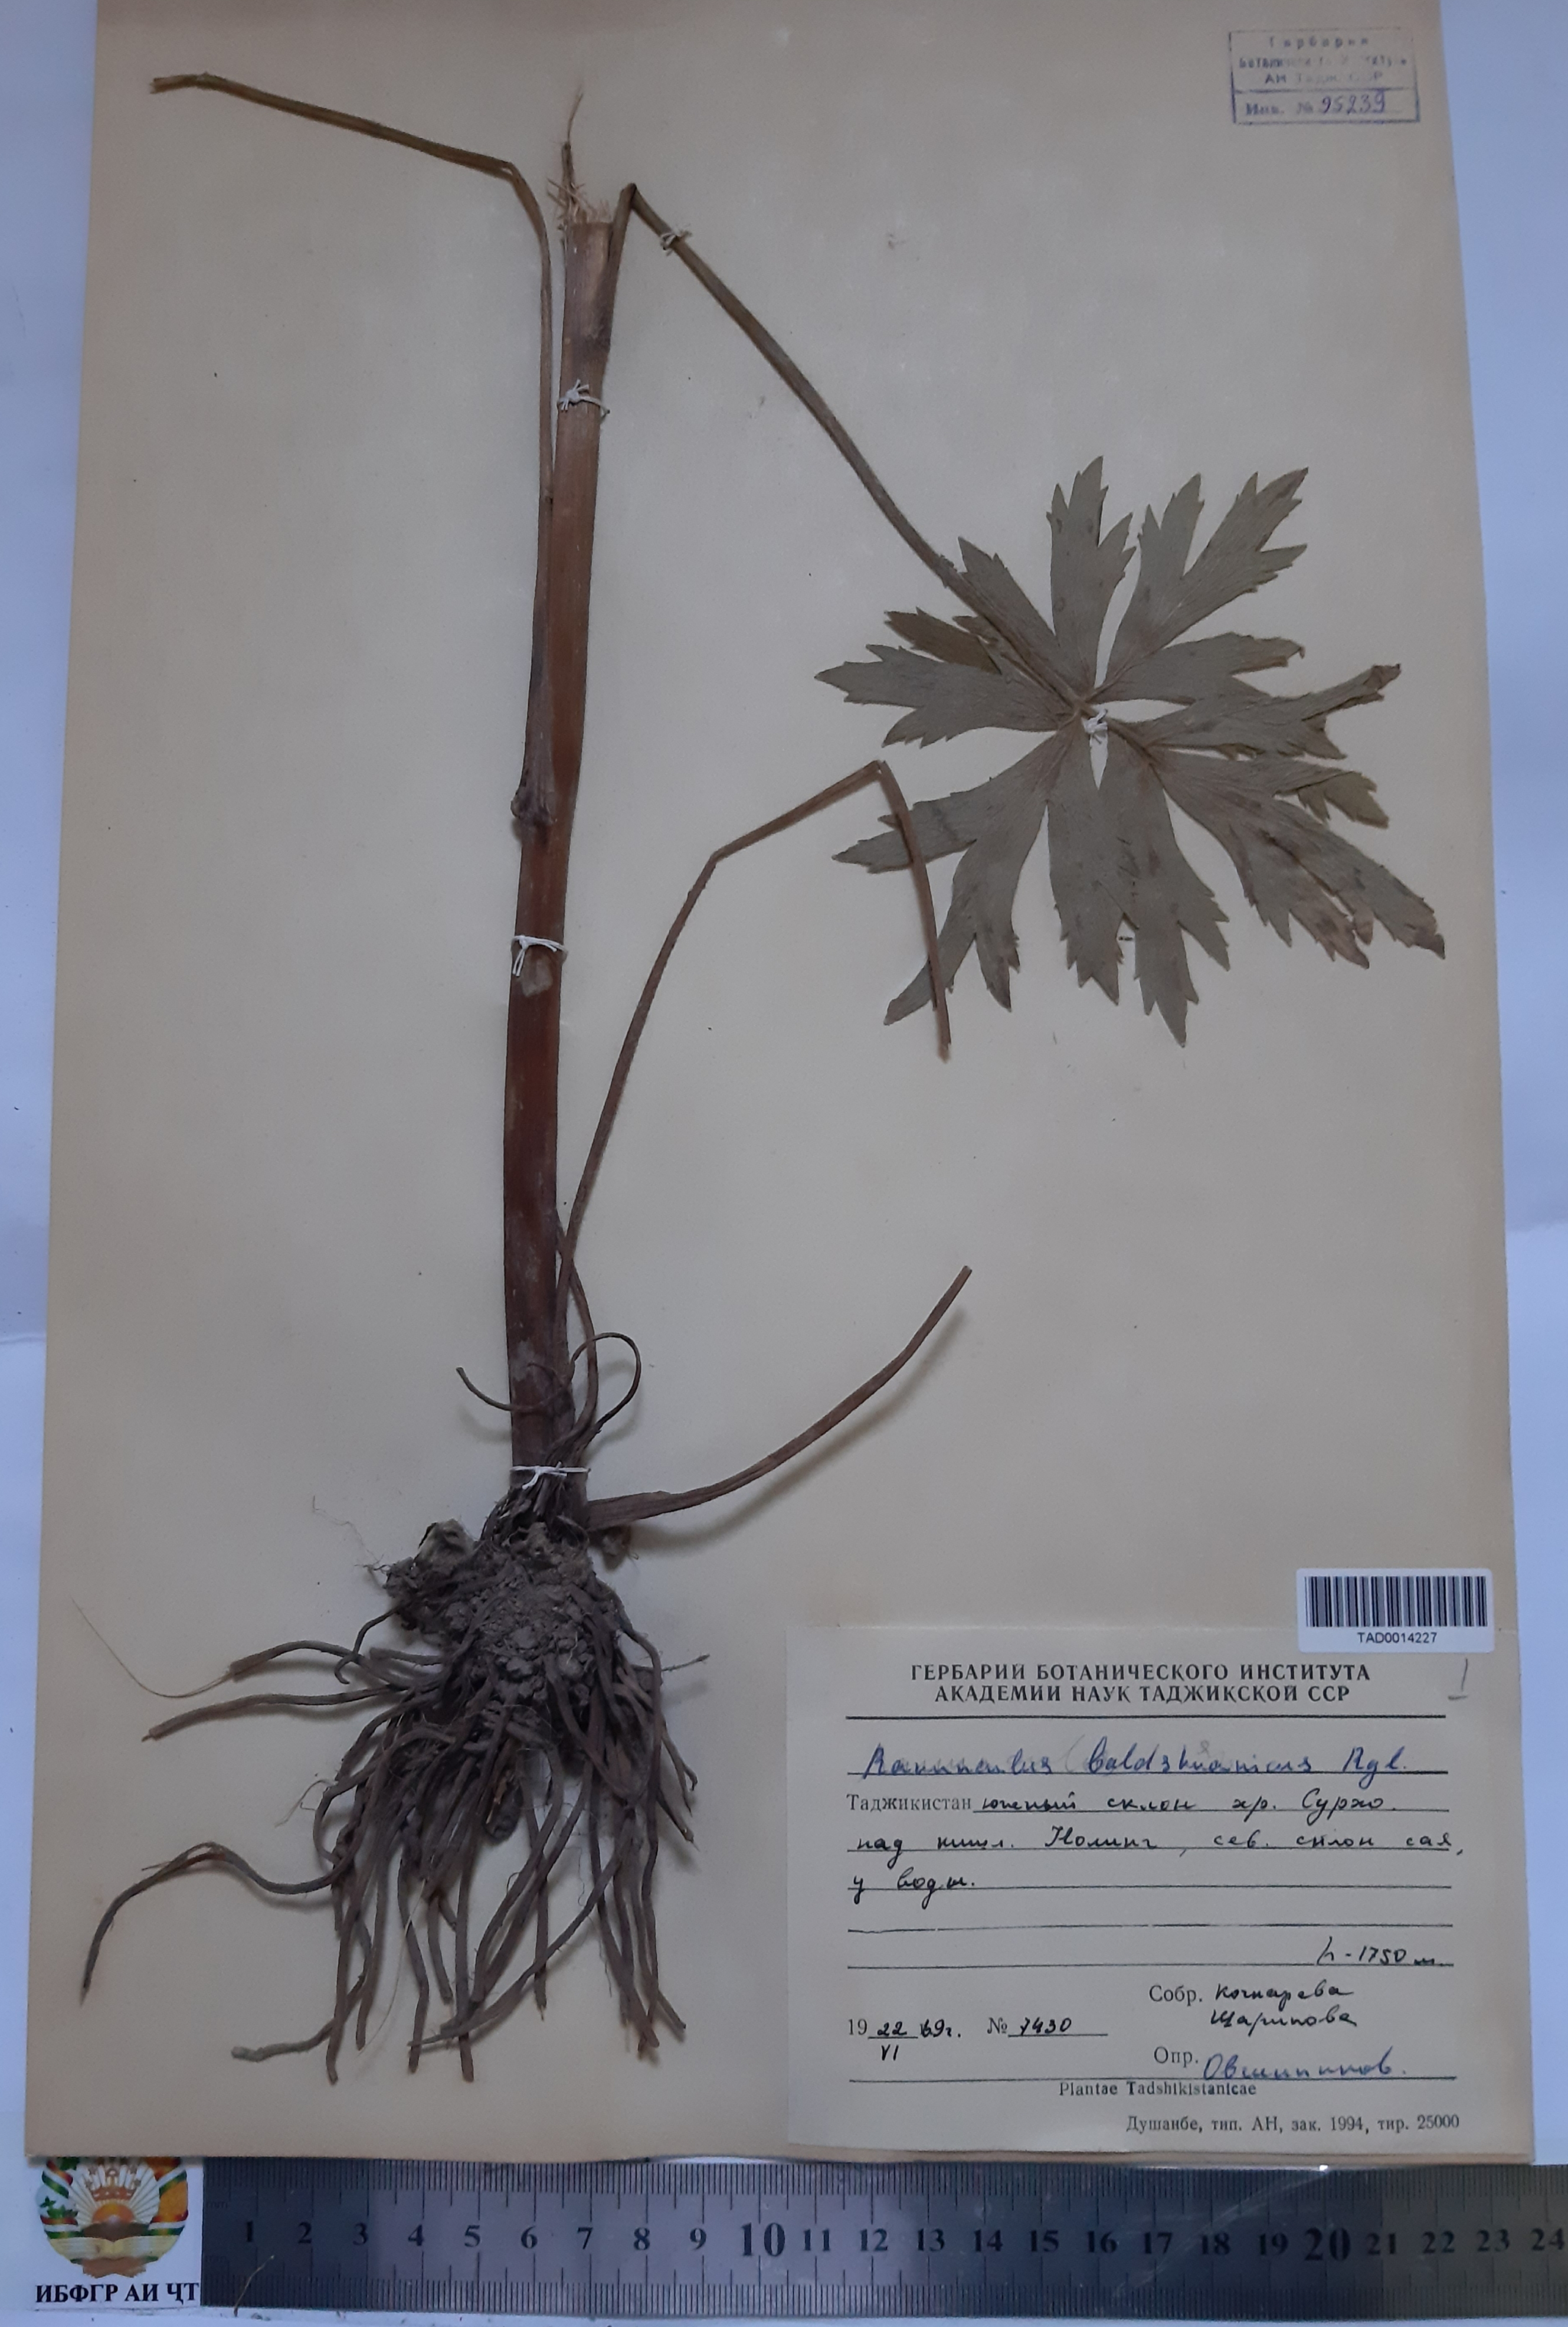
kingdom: Plantae
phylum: Tracheophyta
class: Magnoliopsida
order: Ranunculales
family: Ranunculaceae
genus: Ranunculus
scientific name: Ranunculus baldshuanicus
